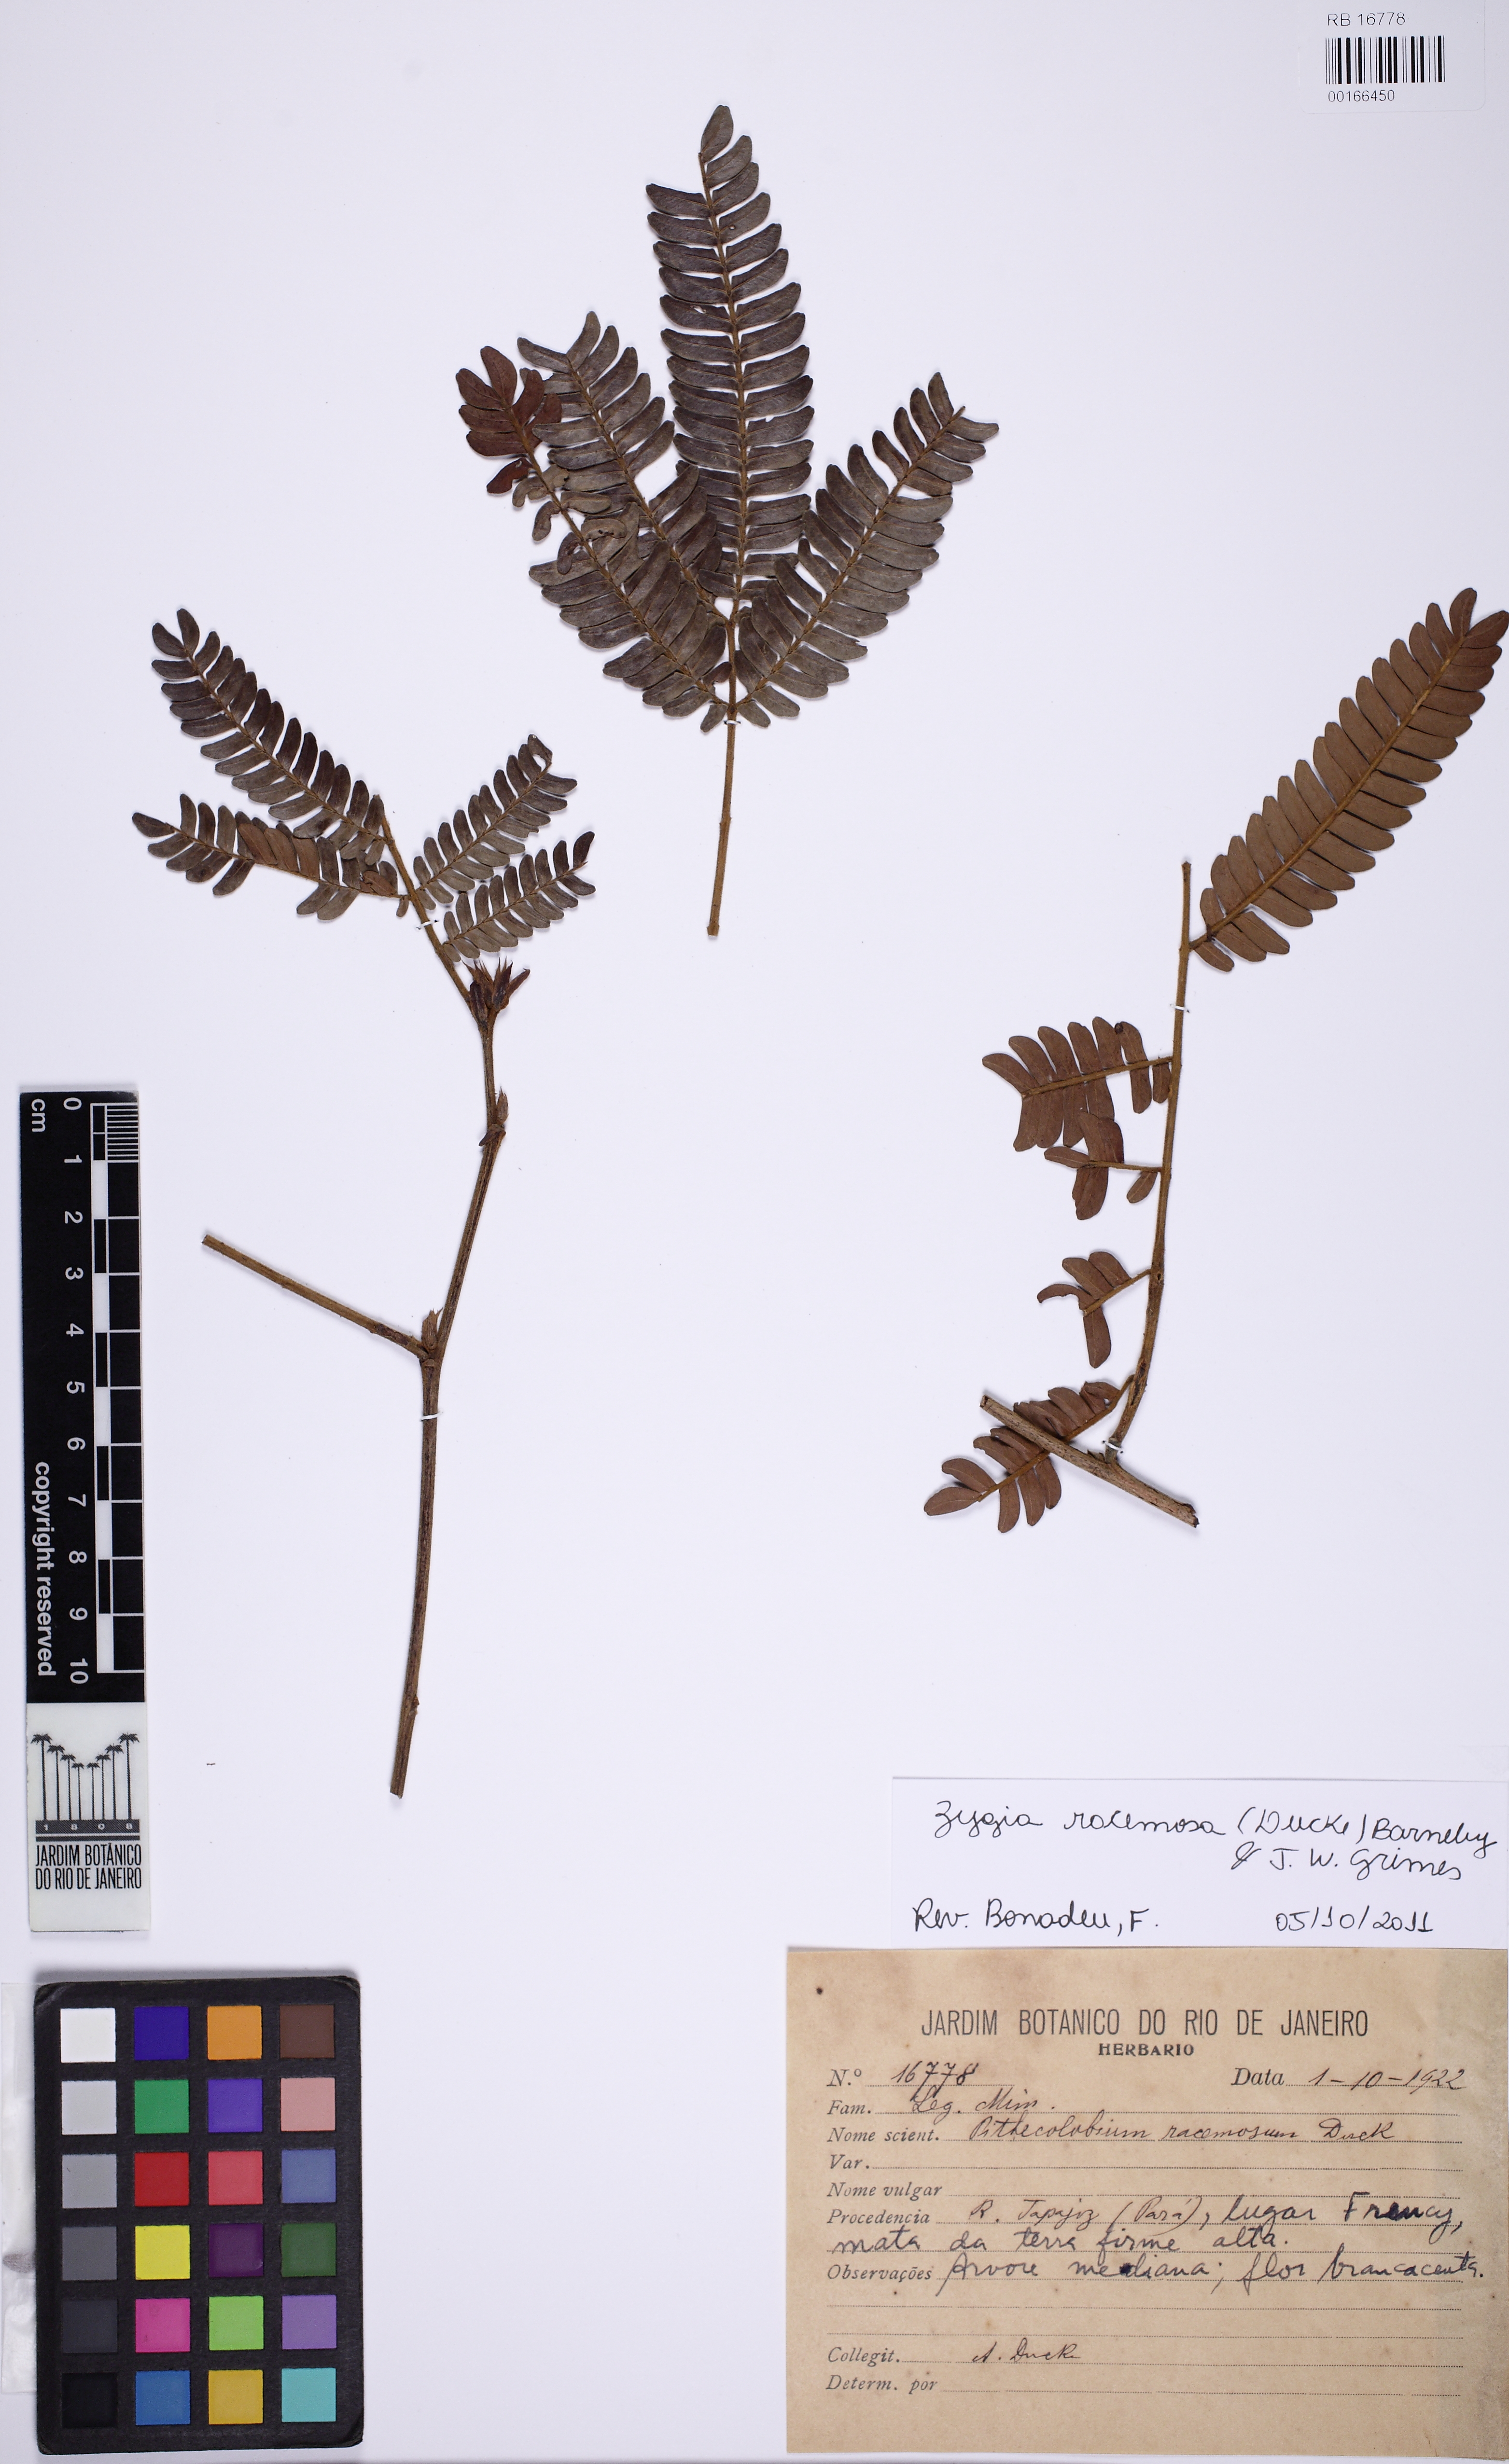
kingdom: Plantae
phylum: Tracheophyta
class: Magnoliopsida
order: Fabales
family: Fabaceae
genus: Zygia
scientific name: Zygia racemosa
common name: Marblewood
